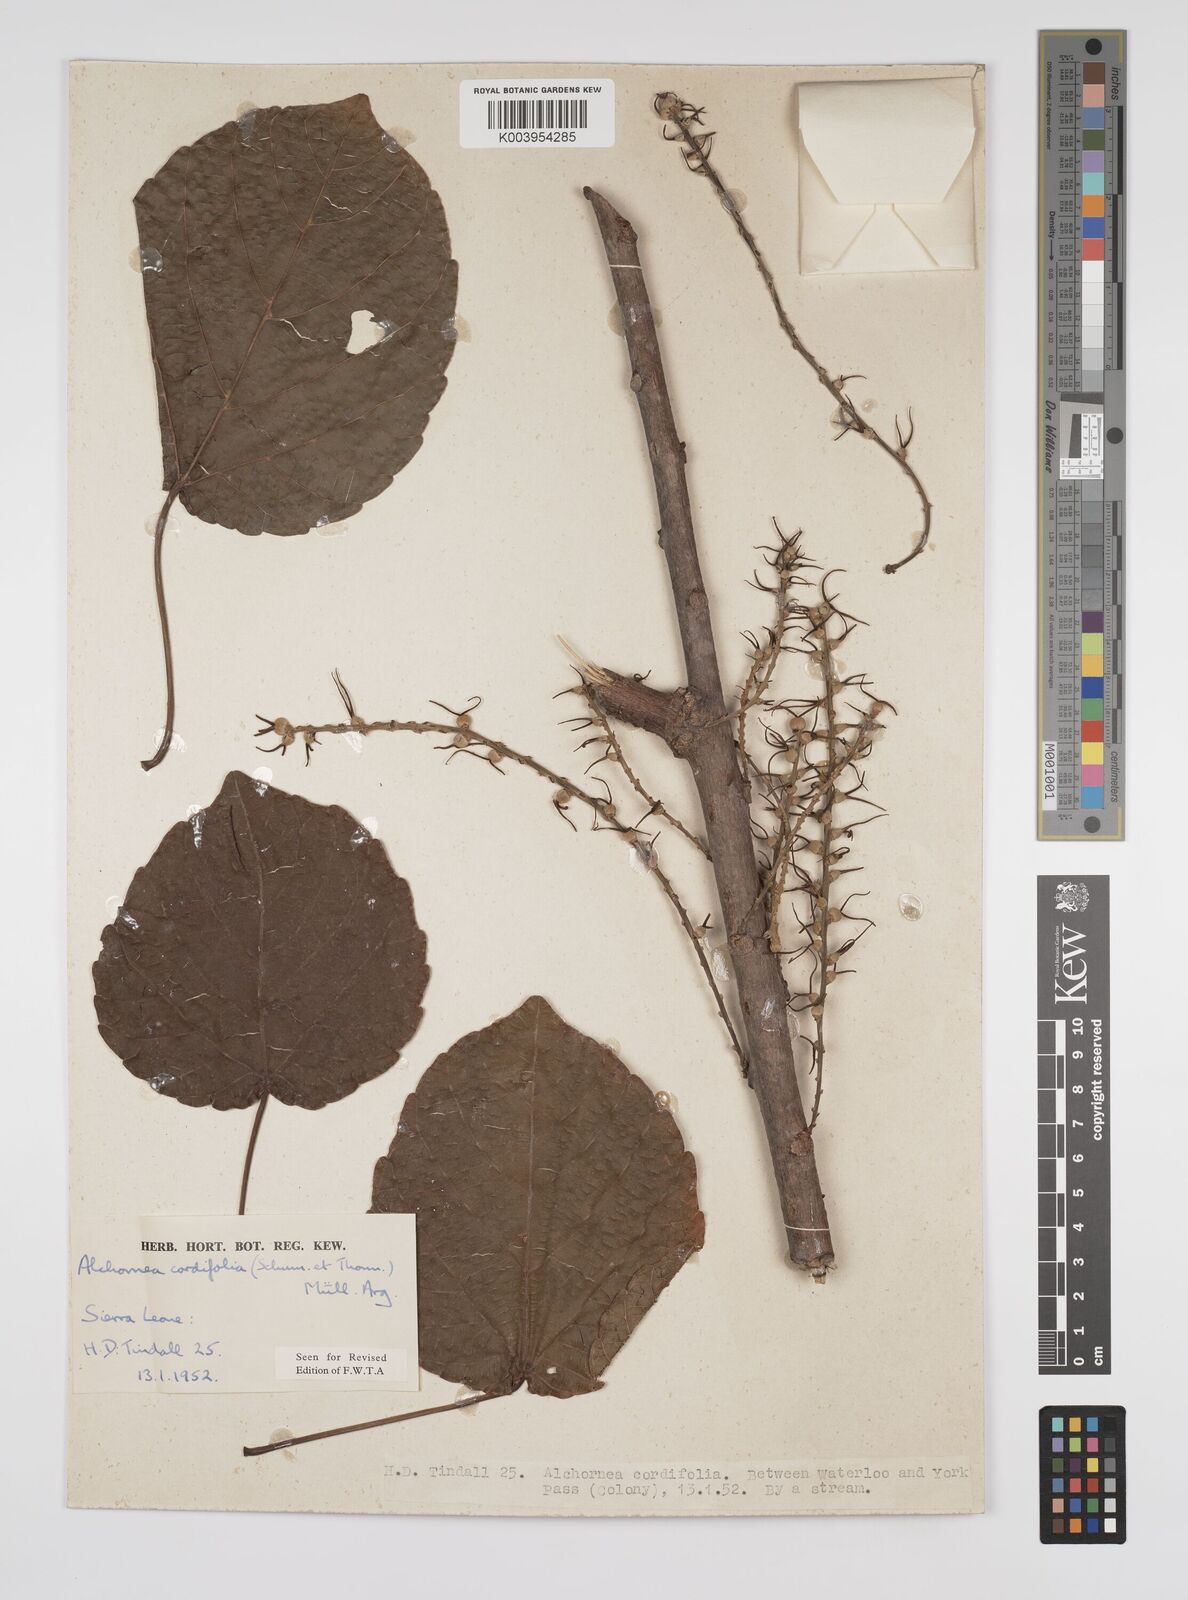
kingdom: Plantae
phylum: Tracheophyta
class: Magnoliopsida
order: Malpighiales
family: Euphorbiaceae
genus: Alchornea
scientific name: Alchornea cordifolia
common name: Christmasbush
